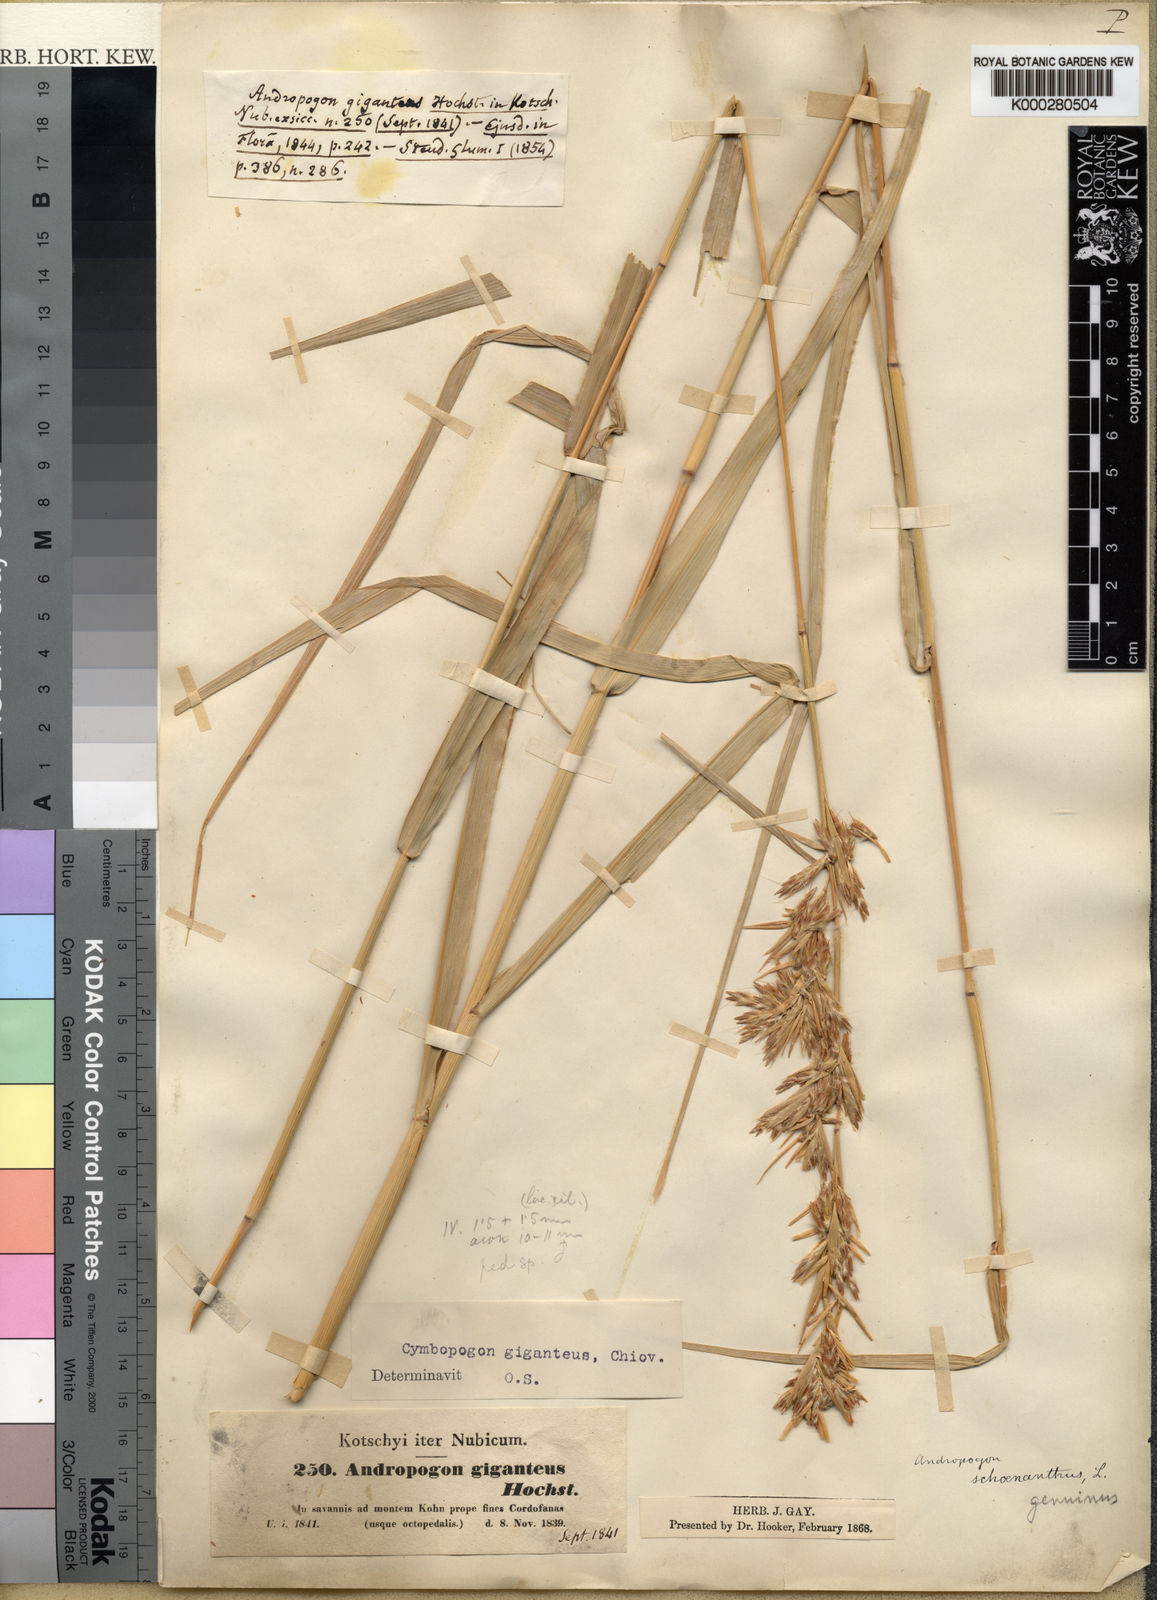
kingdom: Plantae
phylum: Tracheophyta
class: Liliopsida
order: Poales
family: Poaceae
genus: Cymbopogon
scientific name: Cymbopogon giganteus
